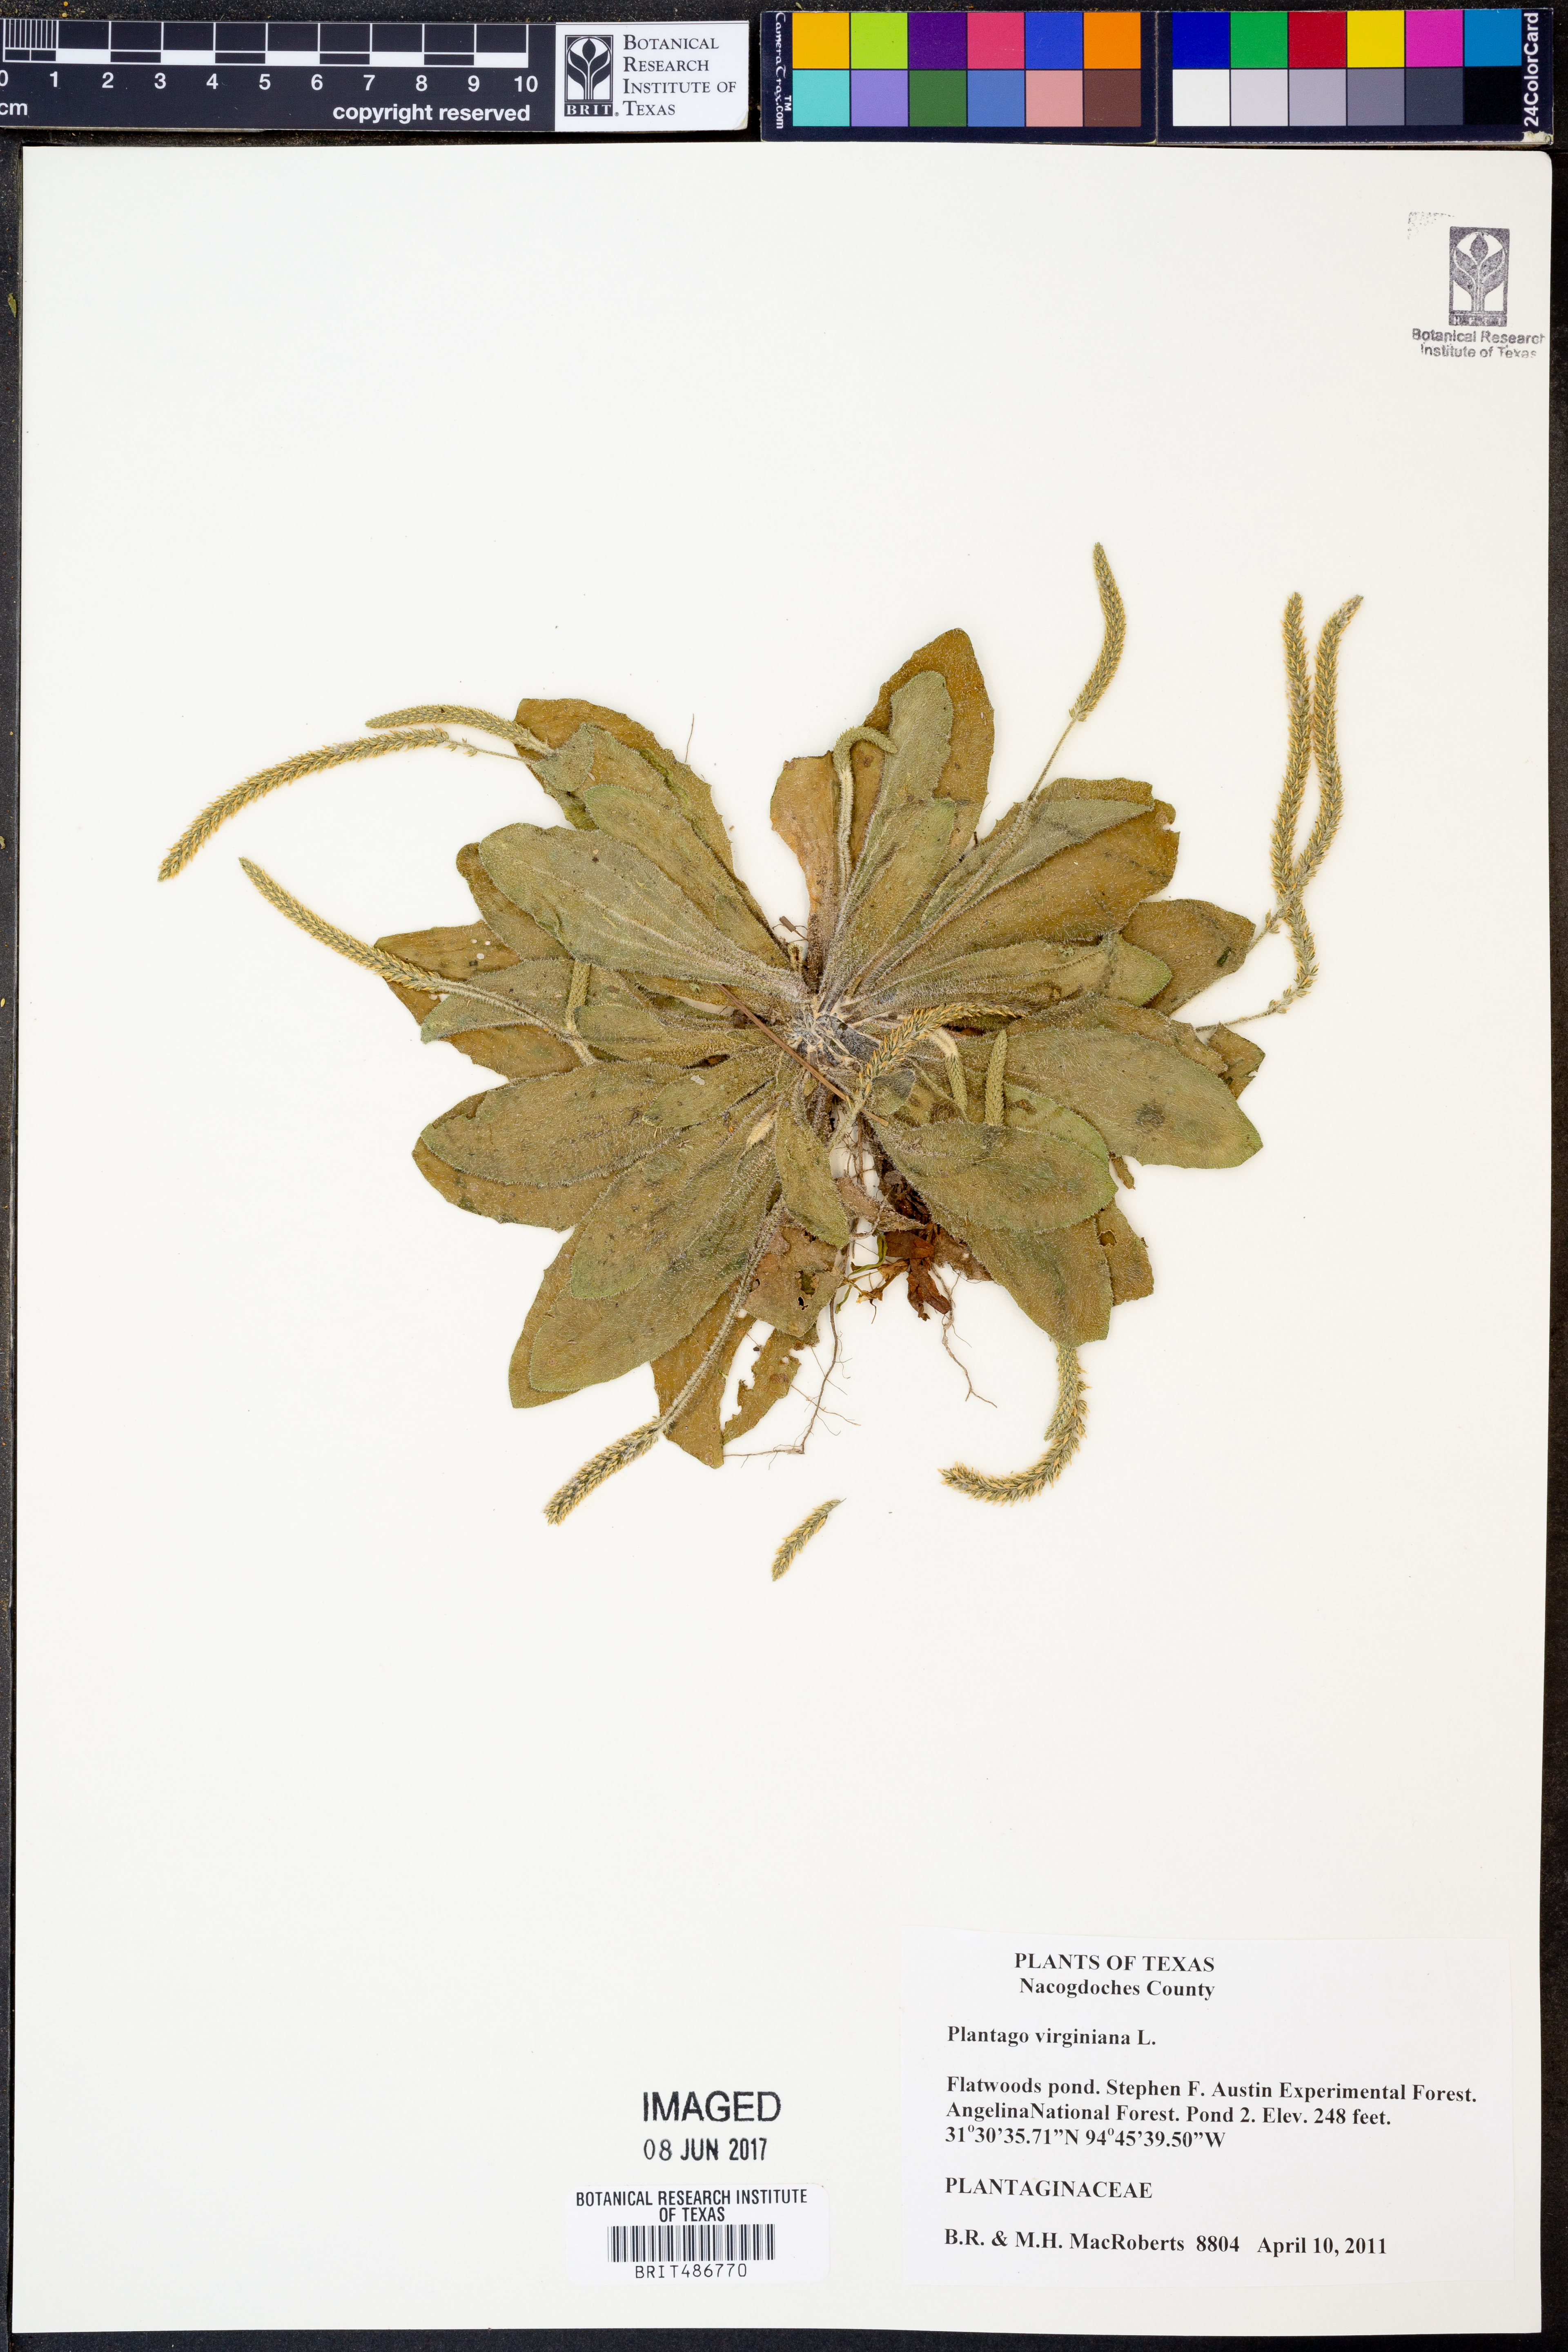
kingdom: Plantae
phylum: Tracheophyta
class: Magnoliopsida
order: Lamiales
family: Plantaginaceae
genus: Plantago
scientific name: Plantago virginica
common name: Hoary plantain
